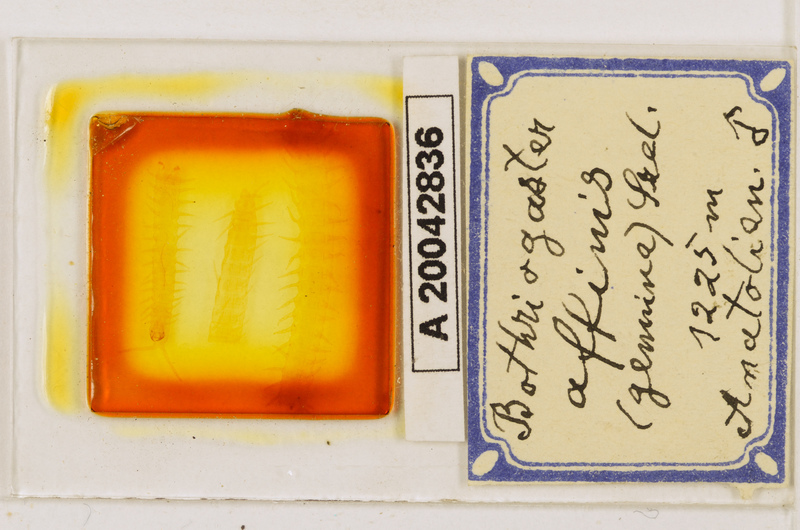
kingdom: Animalia
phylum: Arthropoda
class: Chilopoda
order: Geophilomorpha
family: Himantariidae
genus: Bothriogaster
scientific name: Bothriogaster signata
